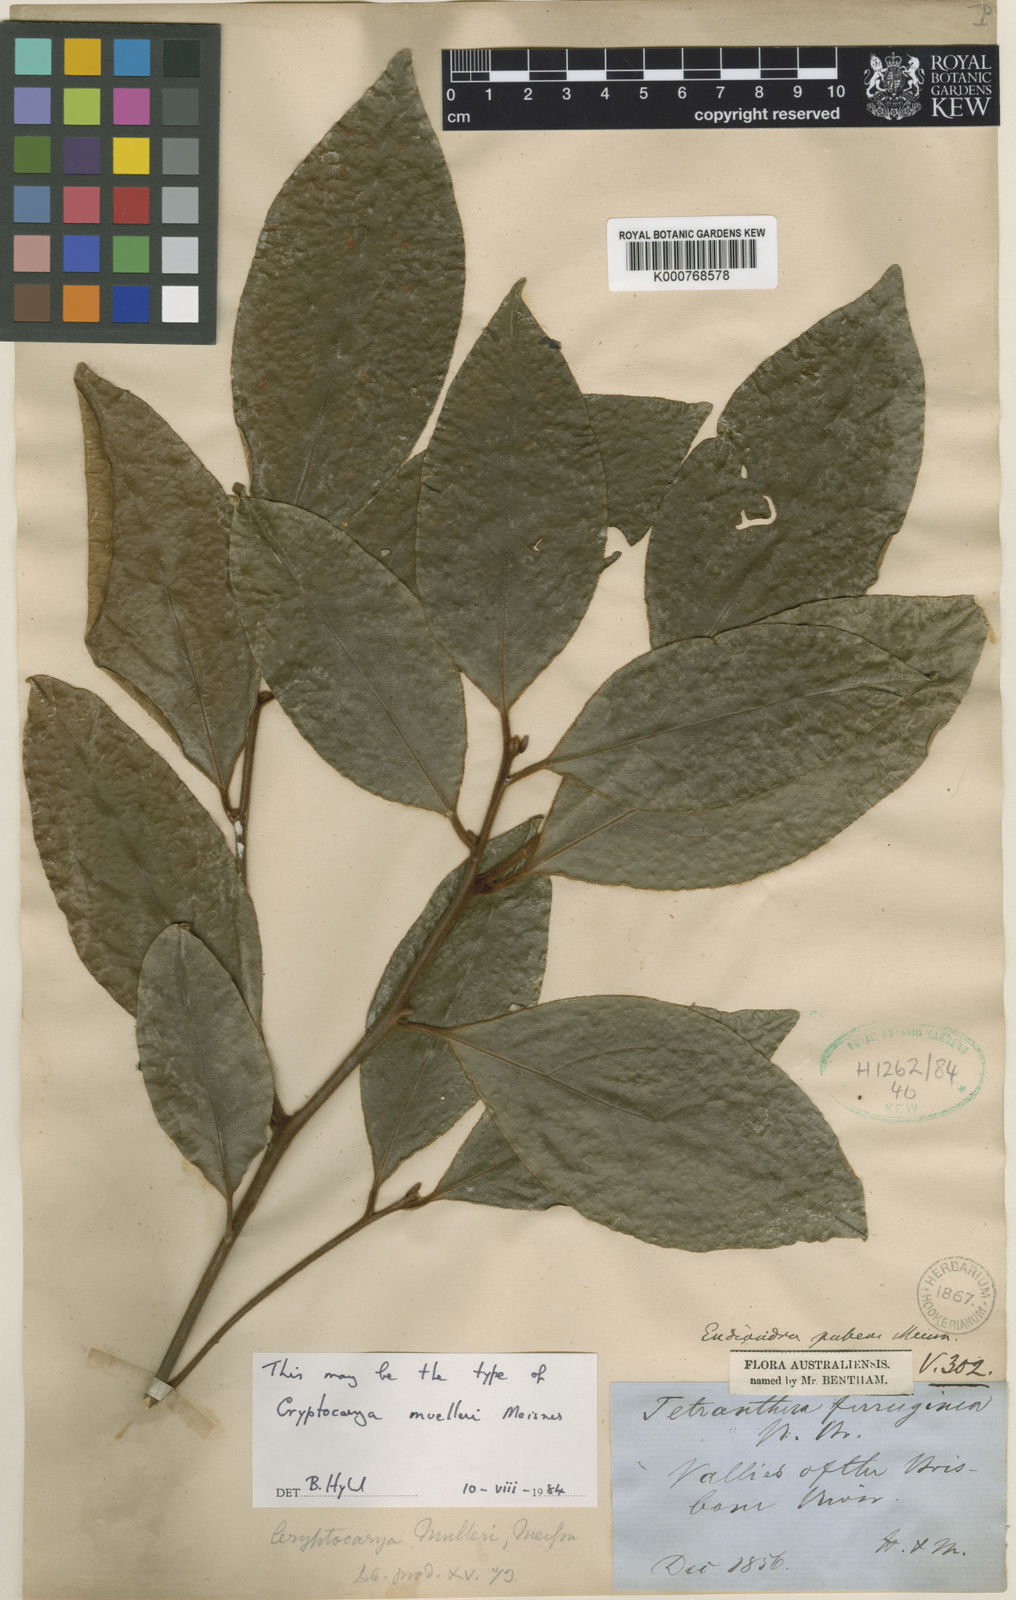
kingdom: Plantae
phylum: Tracheophyta
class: Magnoliopsida
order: Laurales
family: Lauraceae
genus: Endiandra
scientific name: Endiandra pubens
